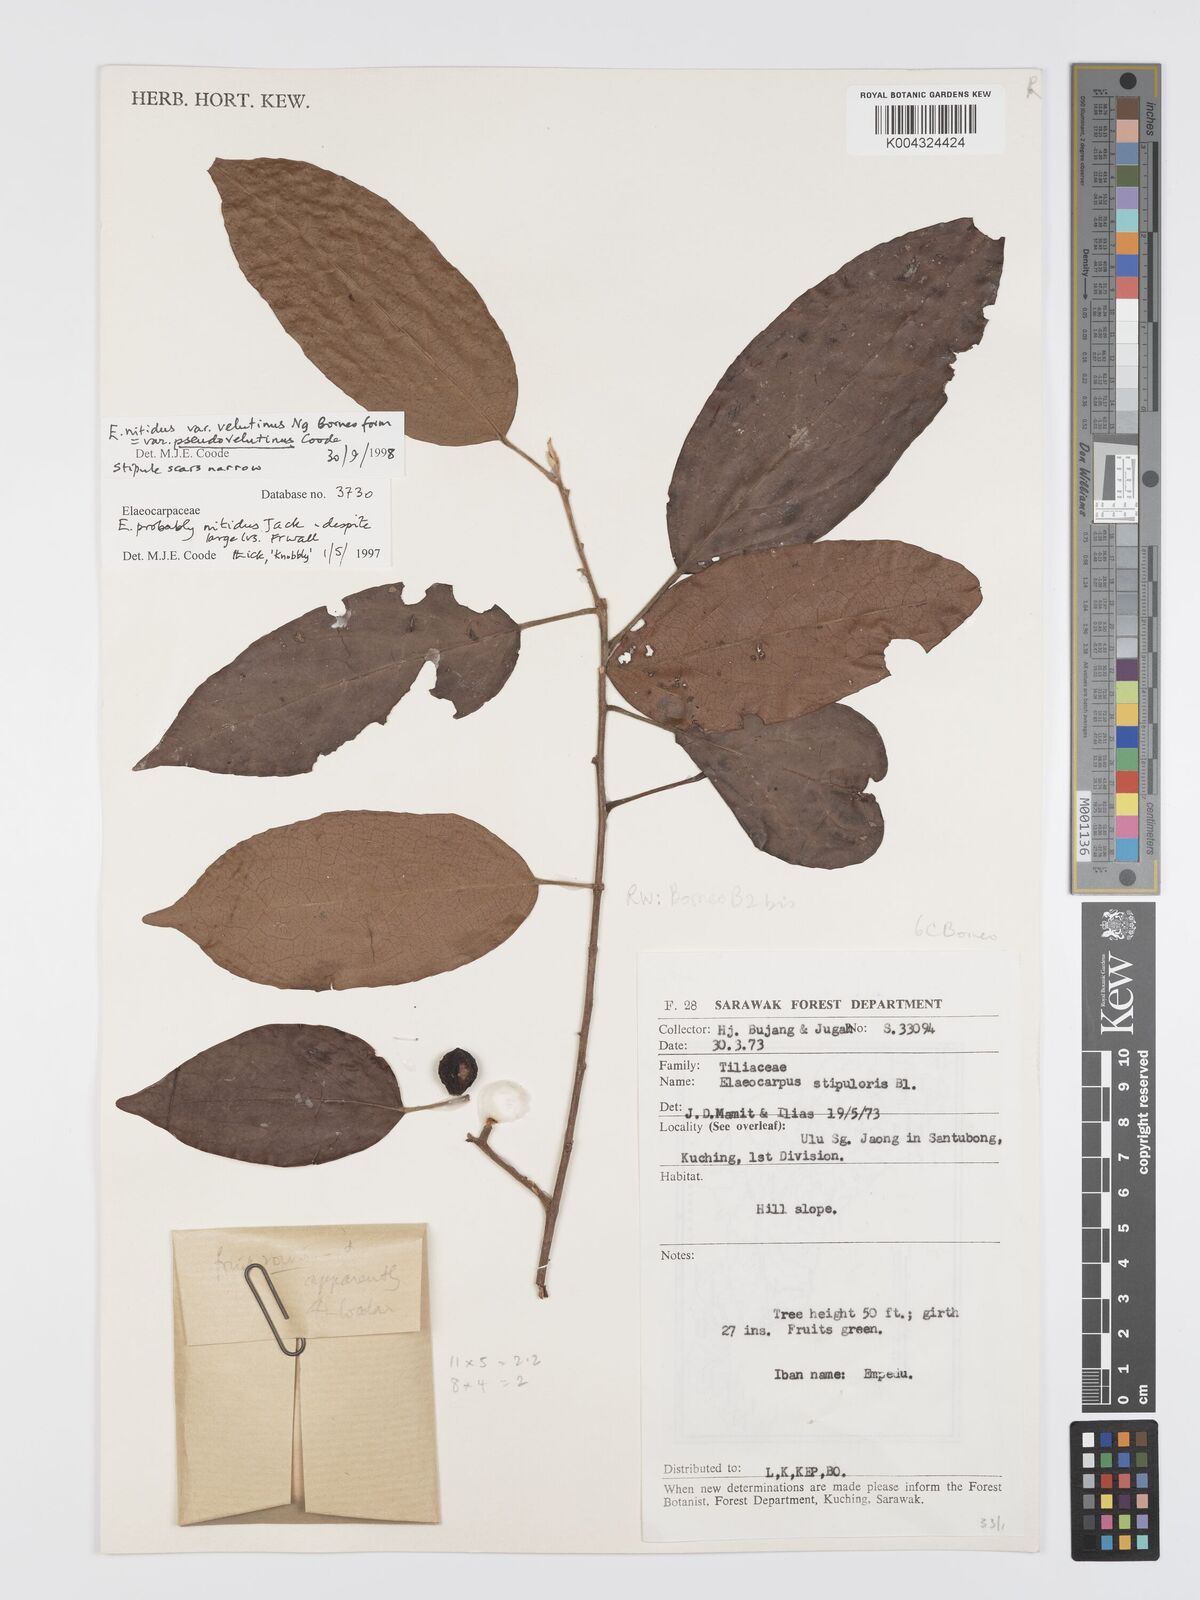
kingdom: Plantae
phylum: Tracheophyta
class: Magnoliopsida
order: Oxalidales
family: Elaeocarpaceae
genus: Elaeocarpus
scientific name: Elaeocarpus nitidus
